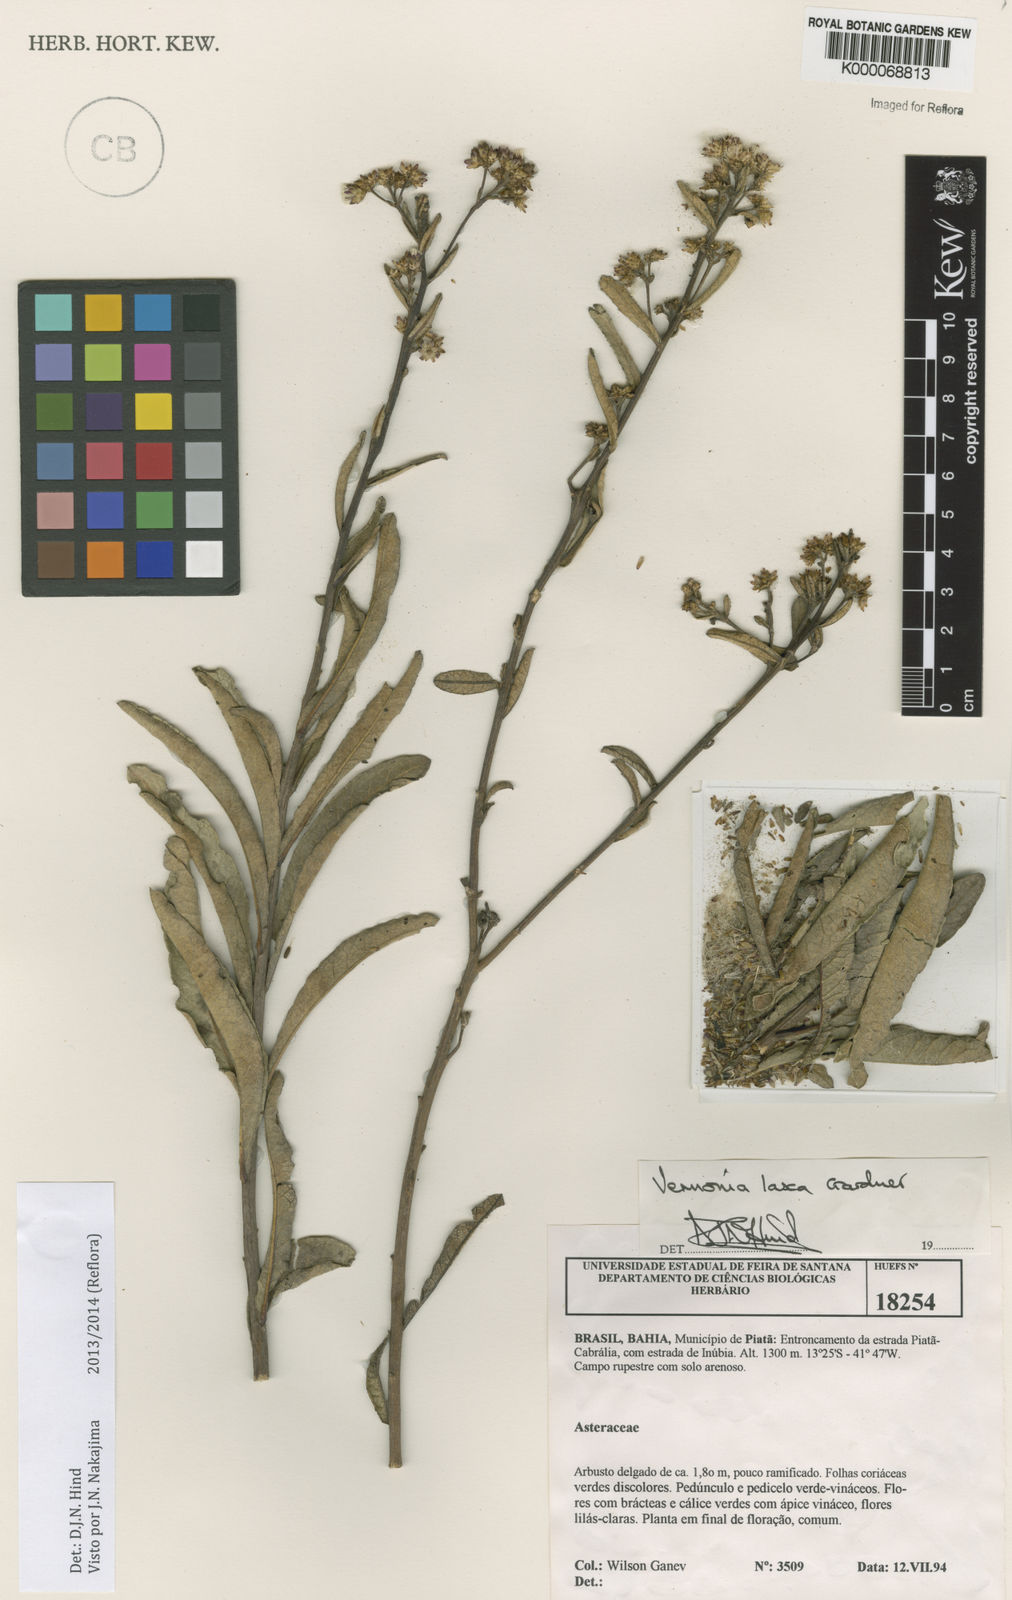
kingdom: Plantae
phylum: Tracheophyta
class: Magnoliopsida
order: Asterales
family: Asteraceae
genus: Vernonanthura
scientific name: Vernonanthura laxa
